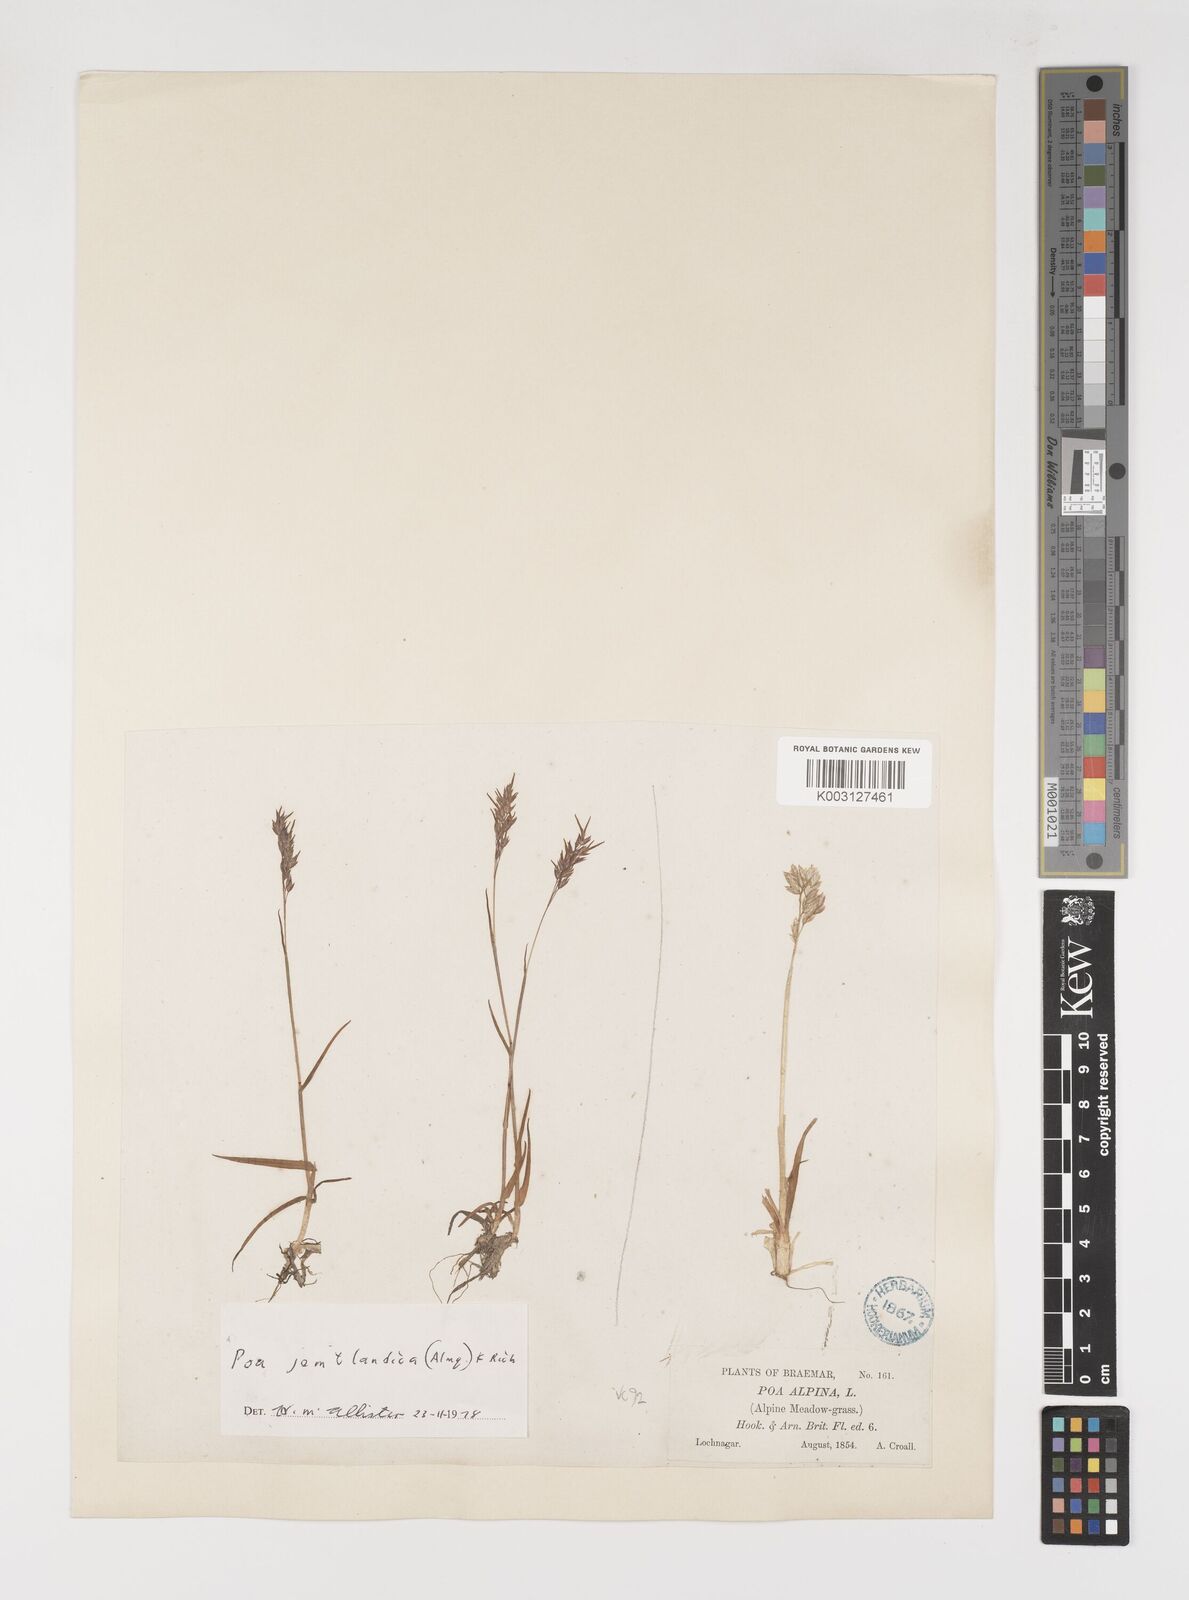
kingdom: Plantae
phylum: Tracheophyta
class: Liliopsida
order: Poales
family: Poaceae
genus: Poa
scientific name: Poa jemtlandica
